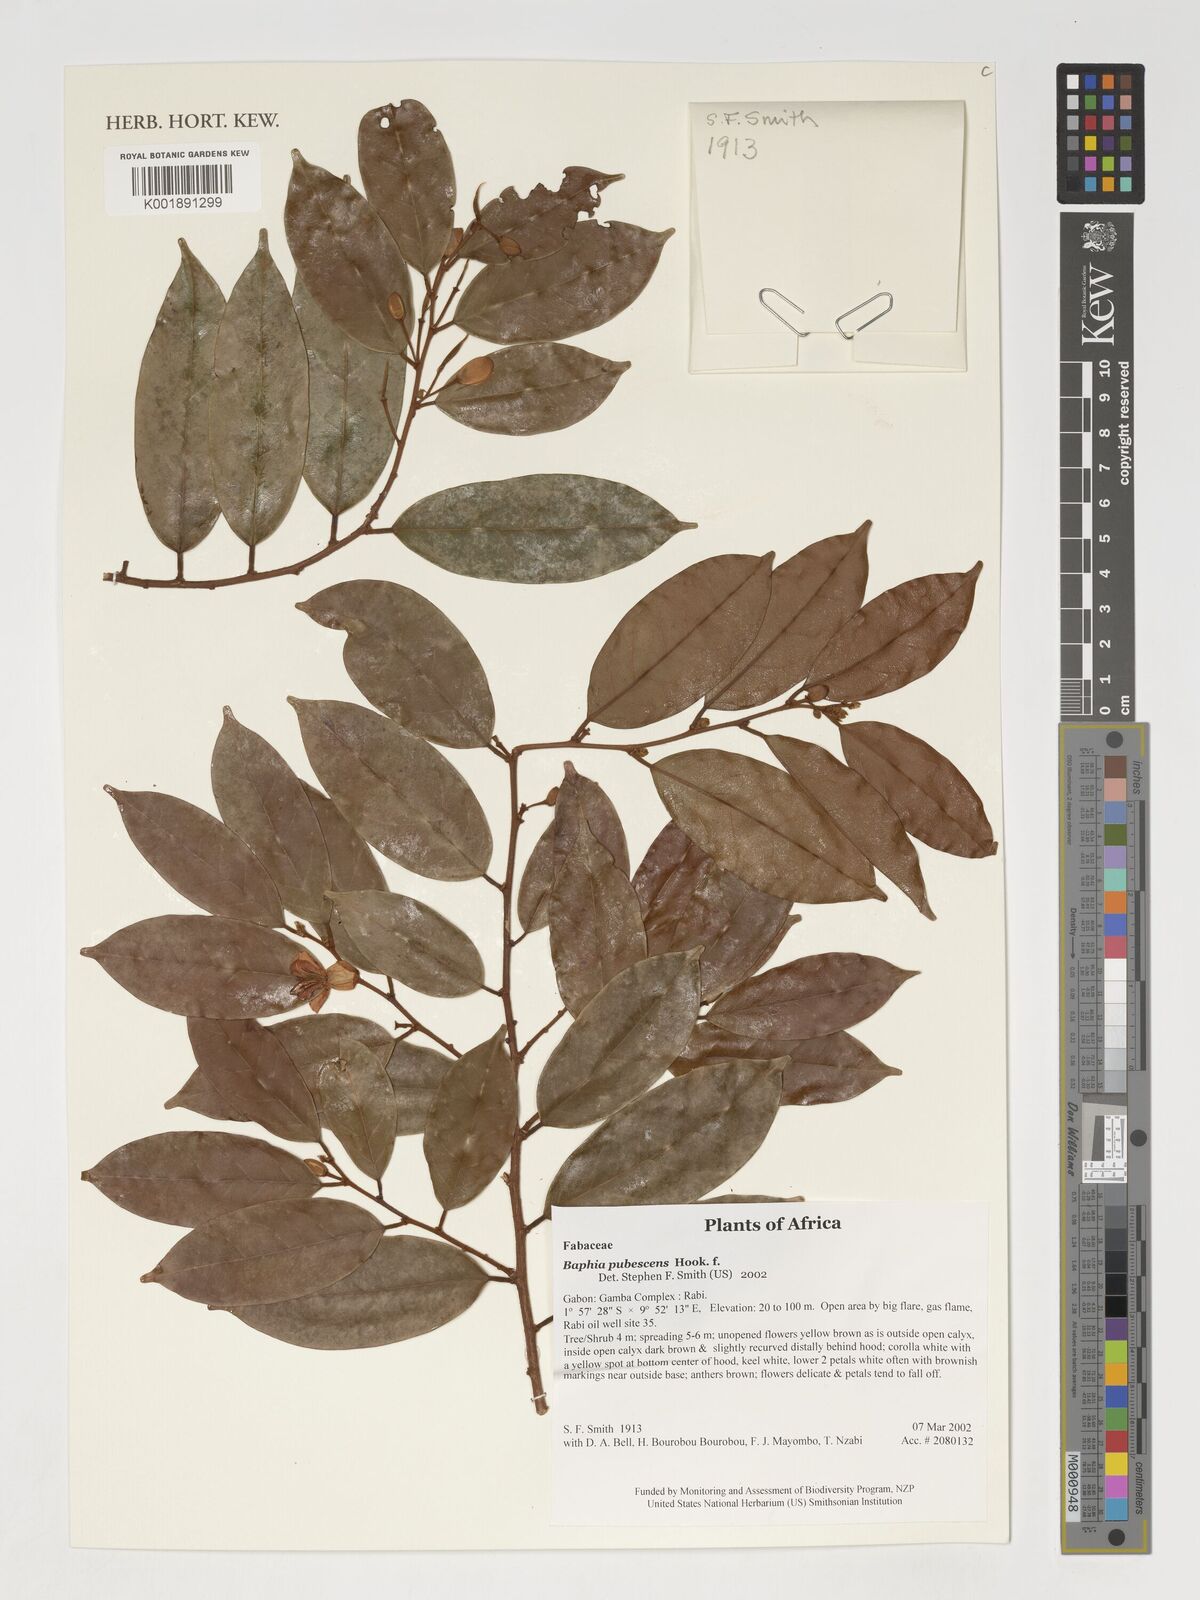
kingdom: Plantae
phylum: Tracheophyta
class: Magnoliopsida
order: Fabales
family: Fabaceae
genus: Baphia
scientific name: Baphia pubescens
